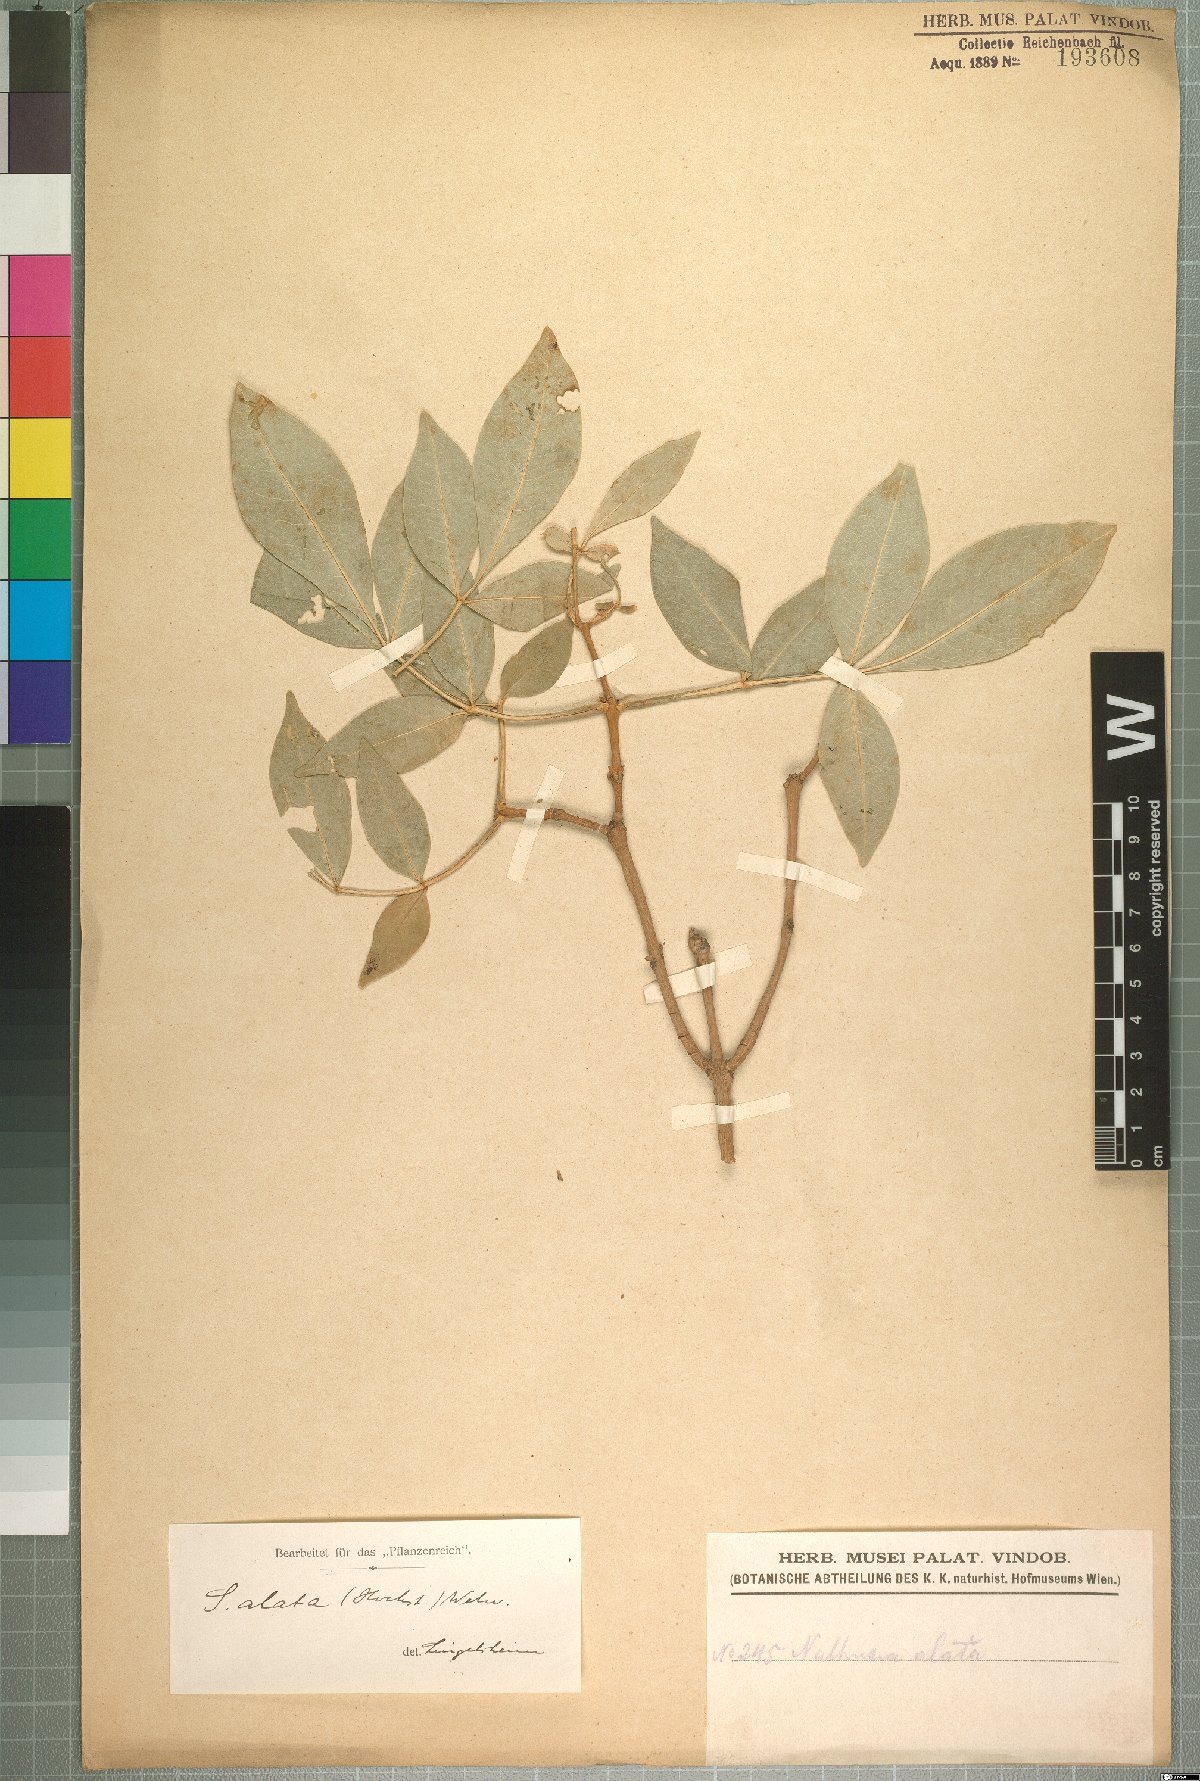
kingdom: Plantae
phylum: Tracheophyta
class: Magnoliopsida
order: Lamiales
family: Oleaceae
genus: Schrebera
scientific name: Schrebera alata
